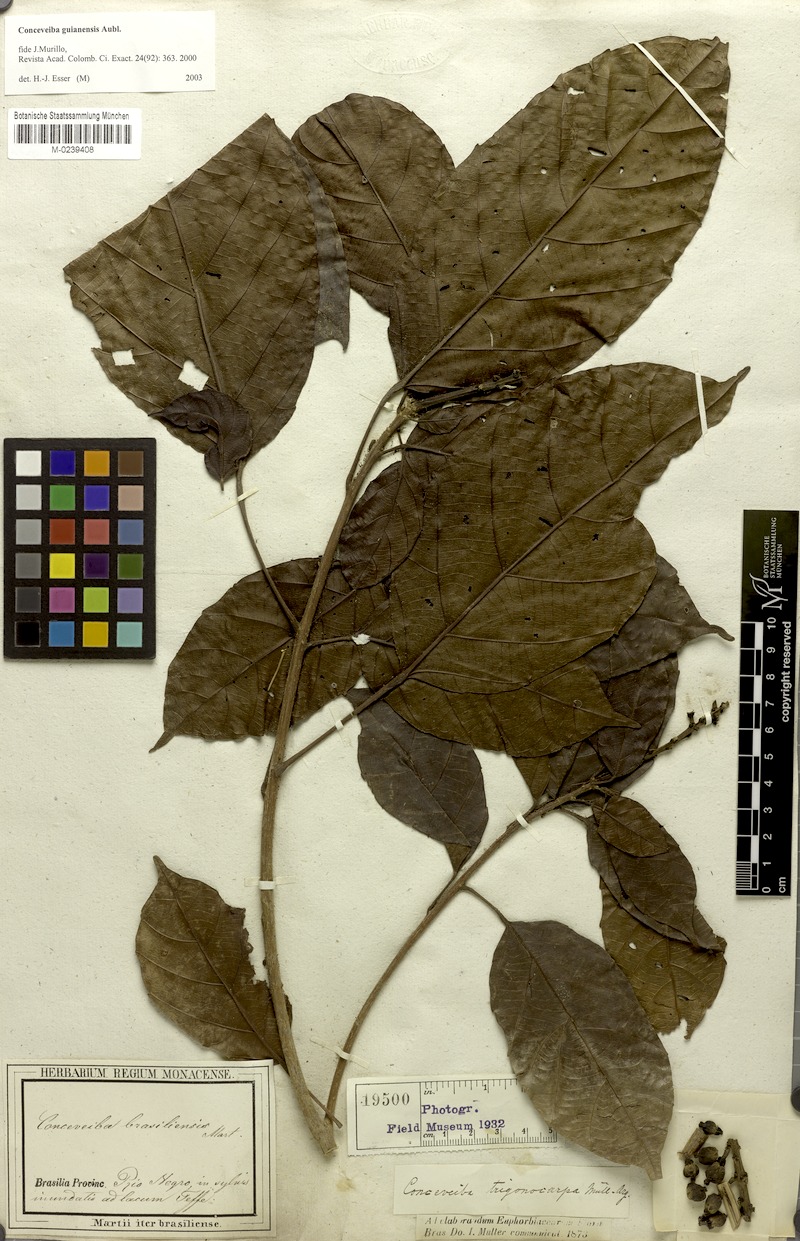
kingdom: Plantae
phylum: Tracheophyta
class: Magnoliopsida
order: Malpighiales
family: Euphorbiaceae
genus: Conceveiba
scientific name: Conceveiba guianensis
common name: Poatoru
